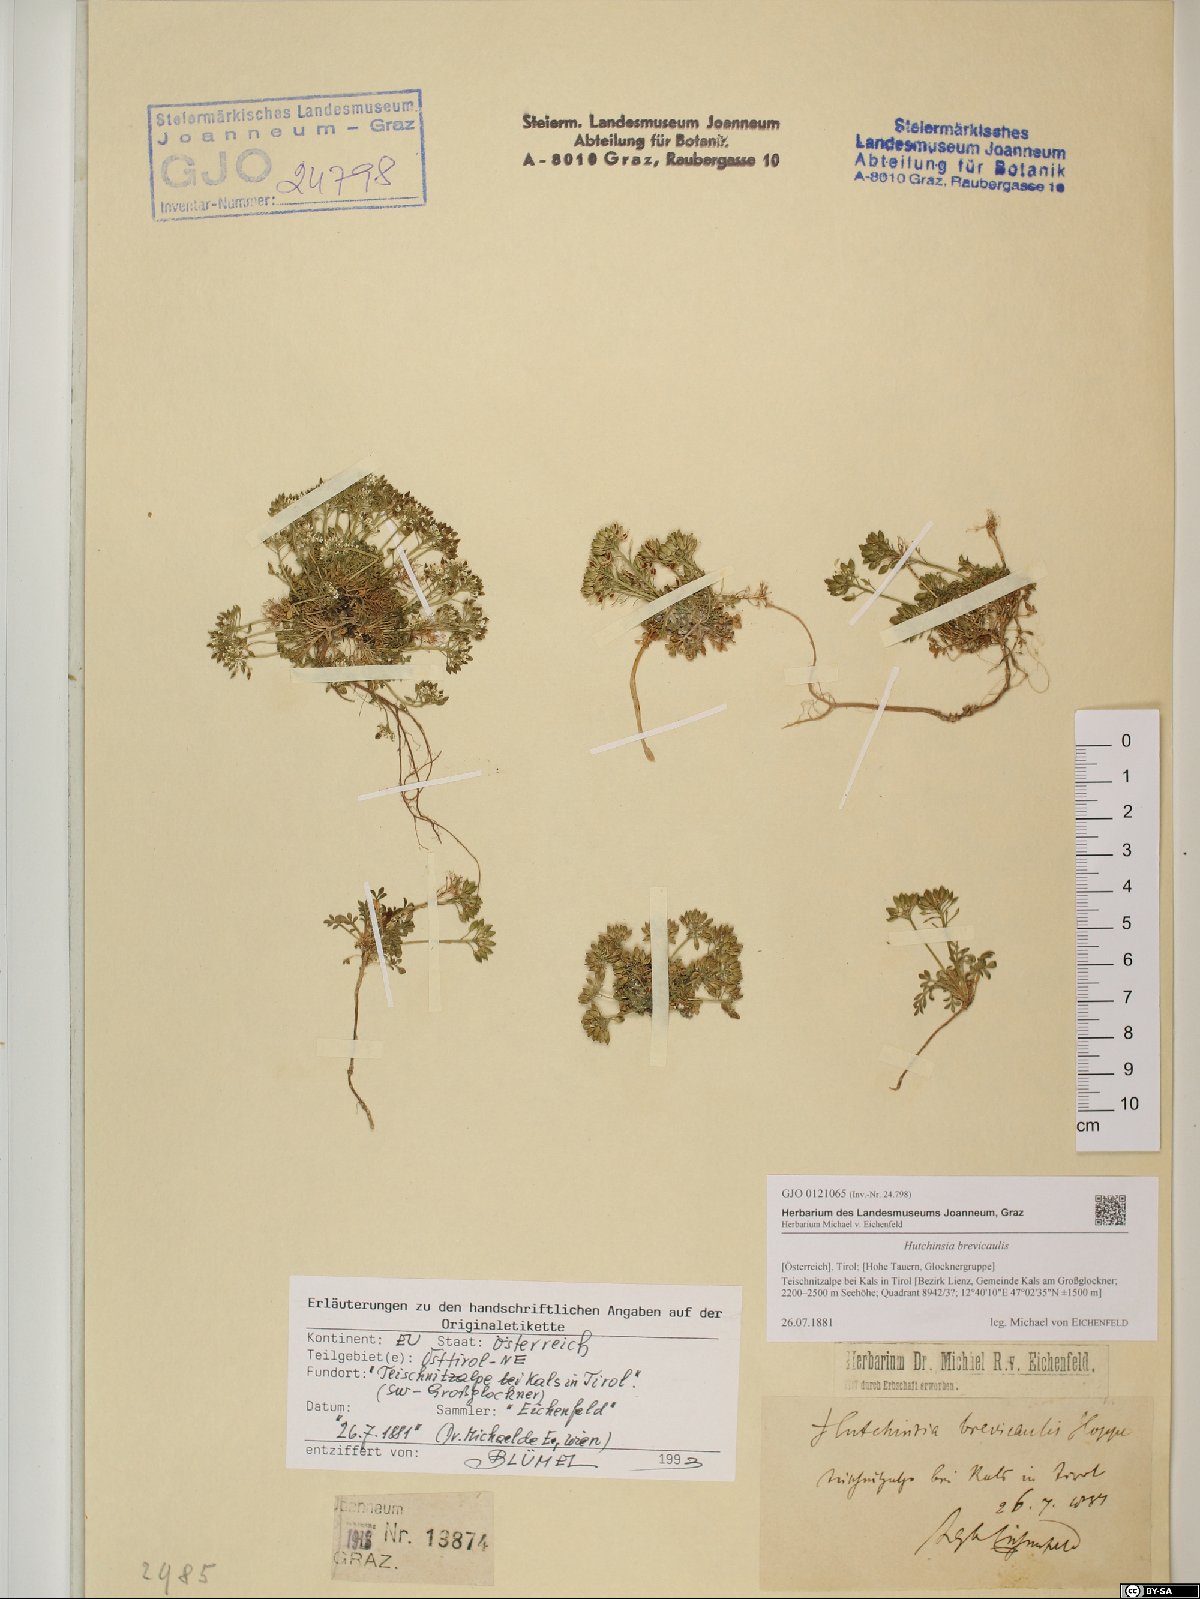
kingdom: Plantae
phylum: Tracheophyta
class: Magnoliopsida
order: Brassicales
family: Brassicaceae
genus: Hornungia
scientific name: Hornungia alpina
